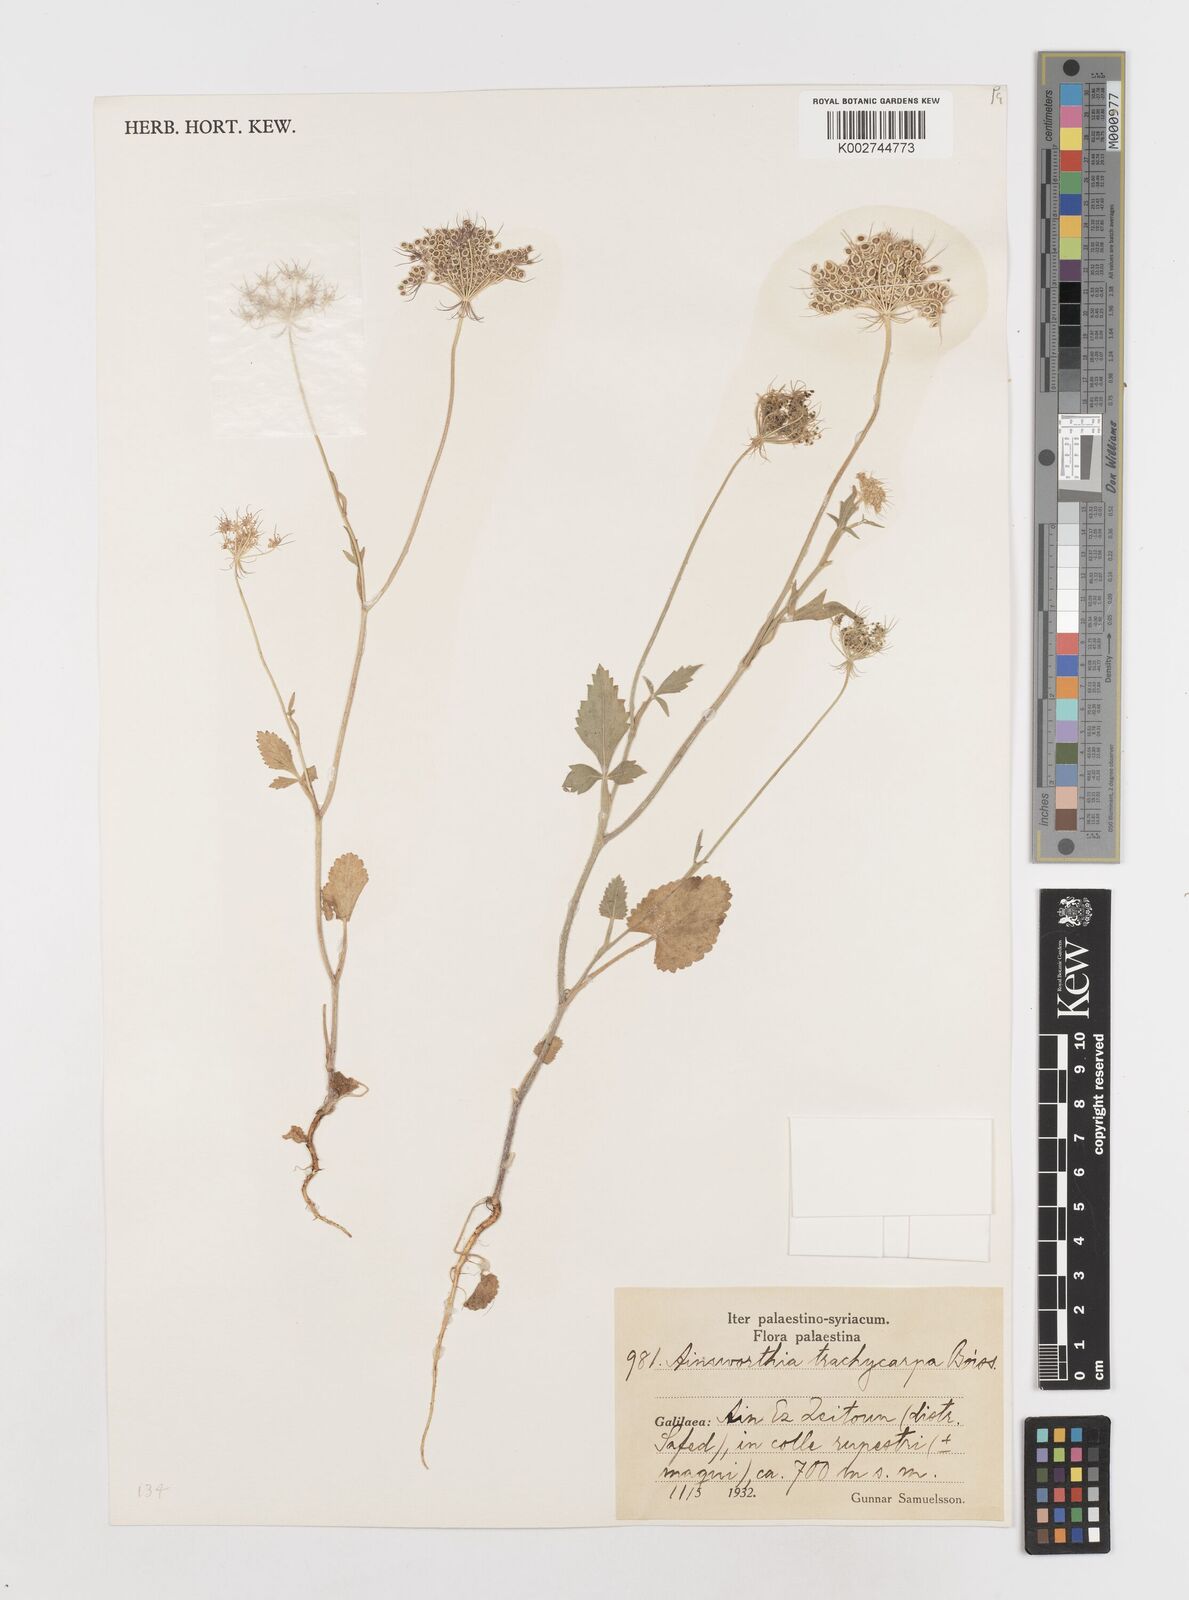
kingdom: Plantae
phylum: Tracheophyta
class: Magnoliopsida
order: Apiales
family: Apiaceae
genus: Ainsworthia
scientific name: Ainsworthia trachycarpa
